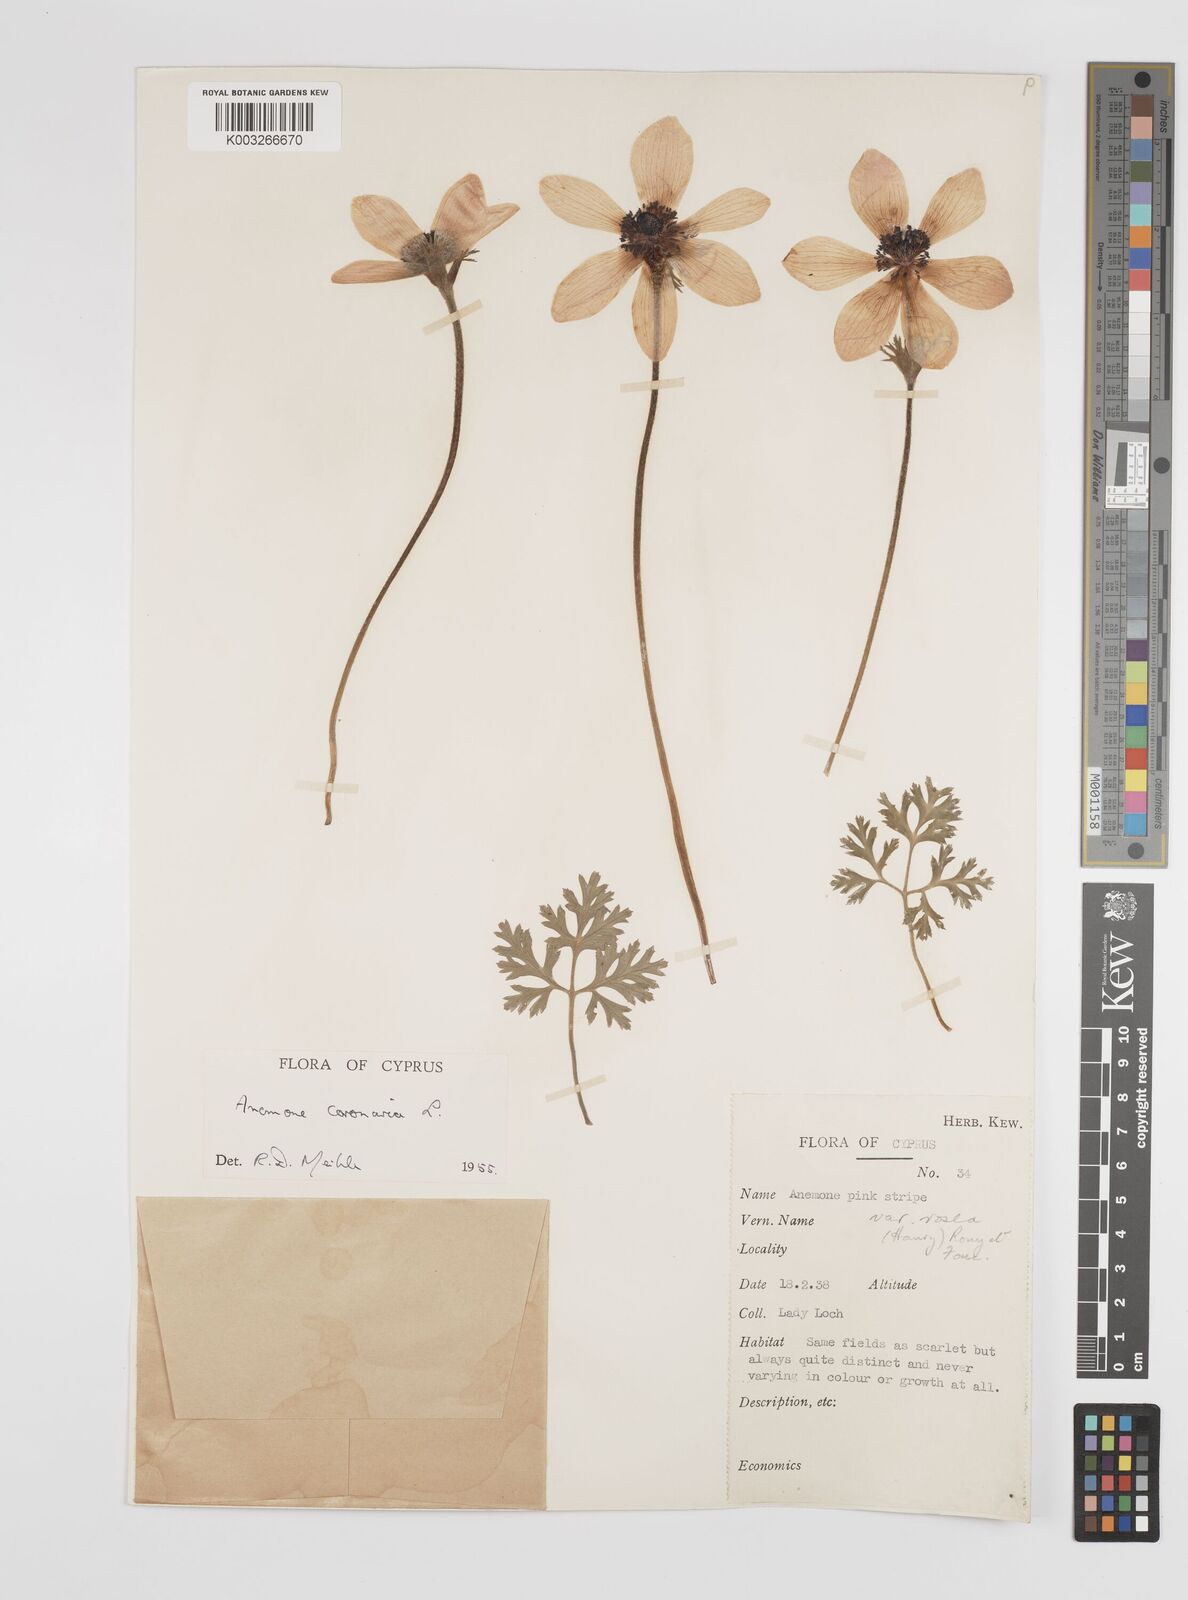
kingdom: Plantae
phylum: Tracheophyta
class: Magnoliopsida
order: Ranunculales
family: Ranunculaceae
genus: Anemone
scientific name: Anemone coronaria
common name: Poppy anemone
